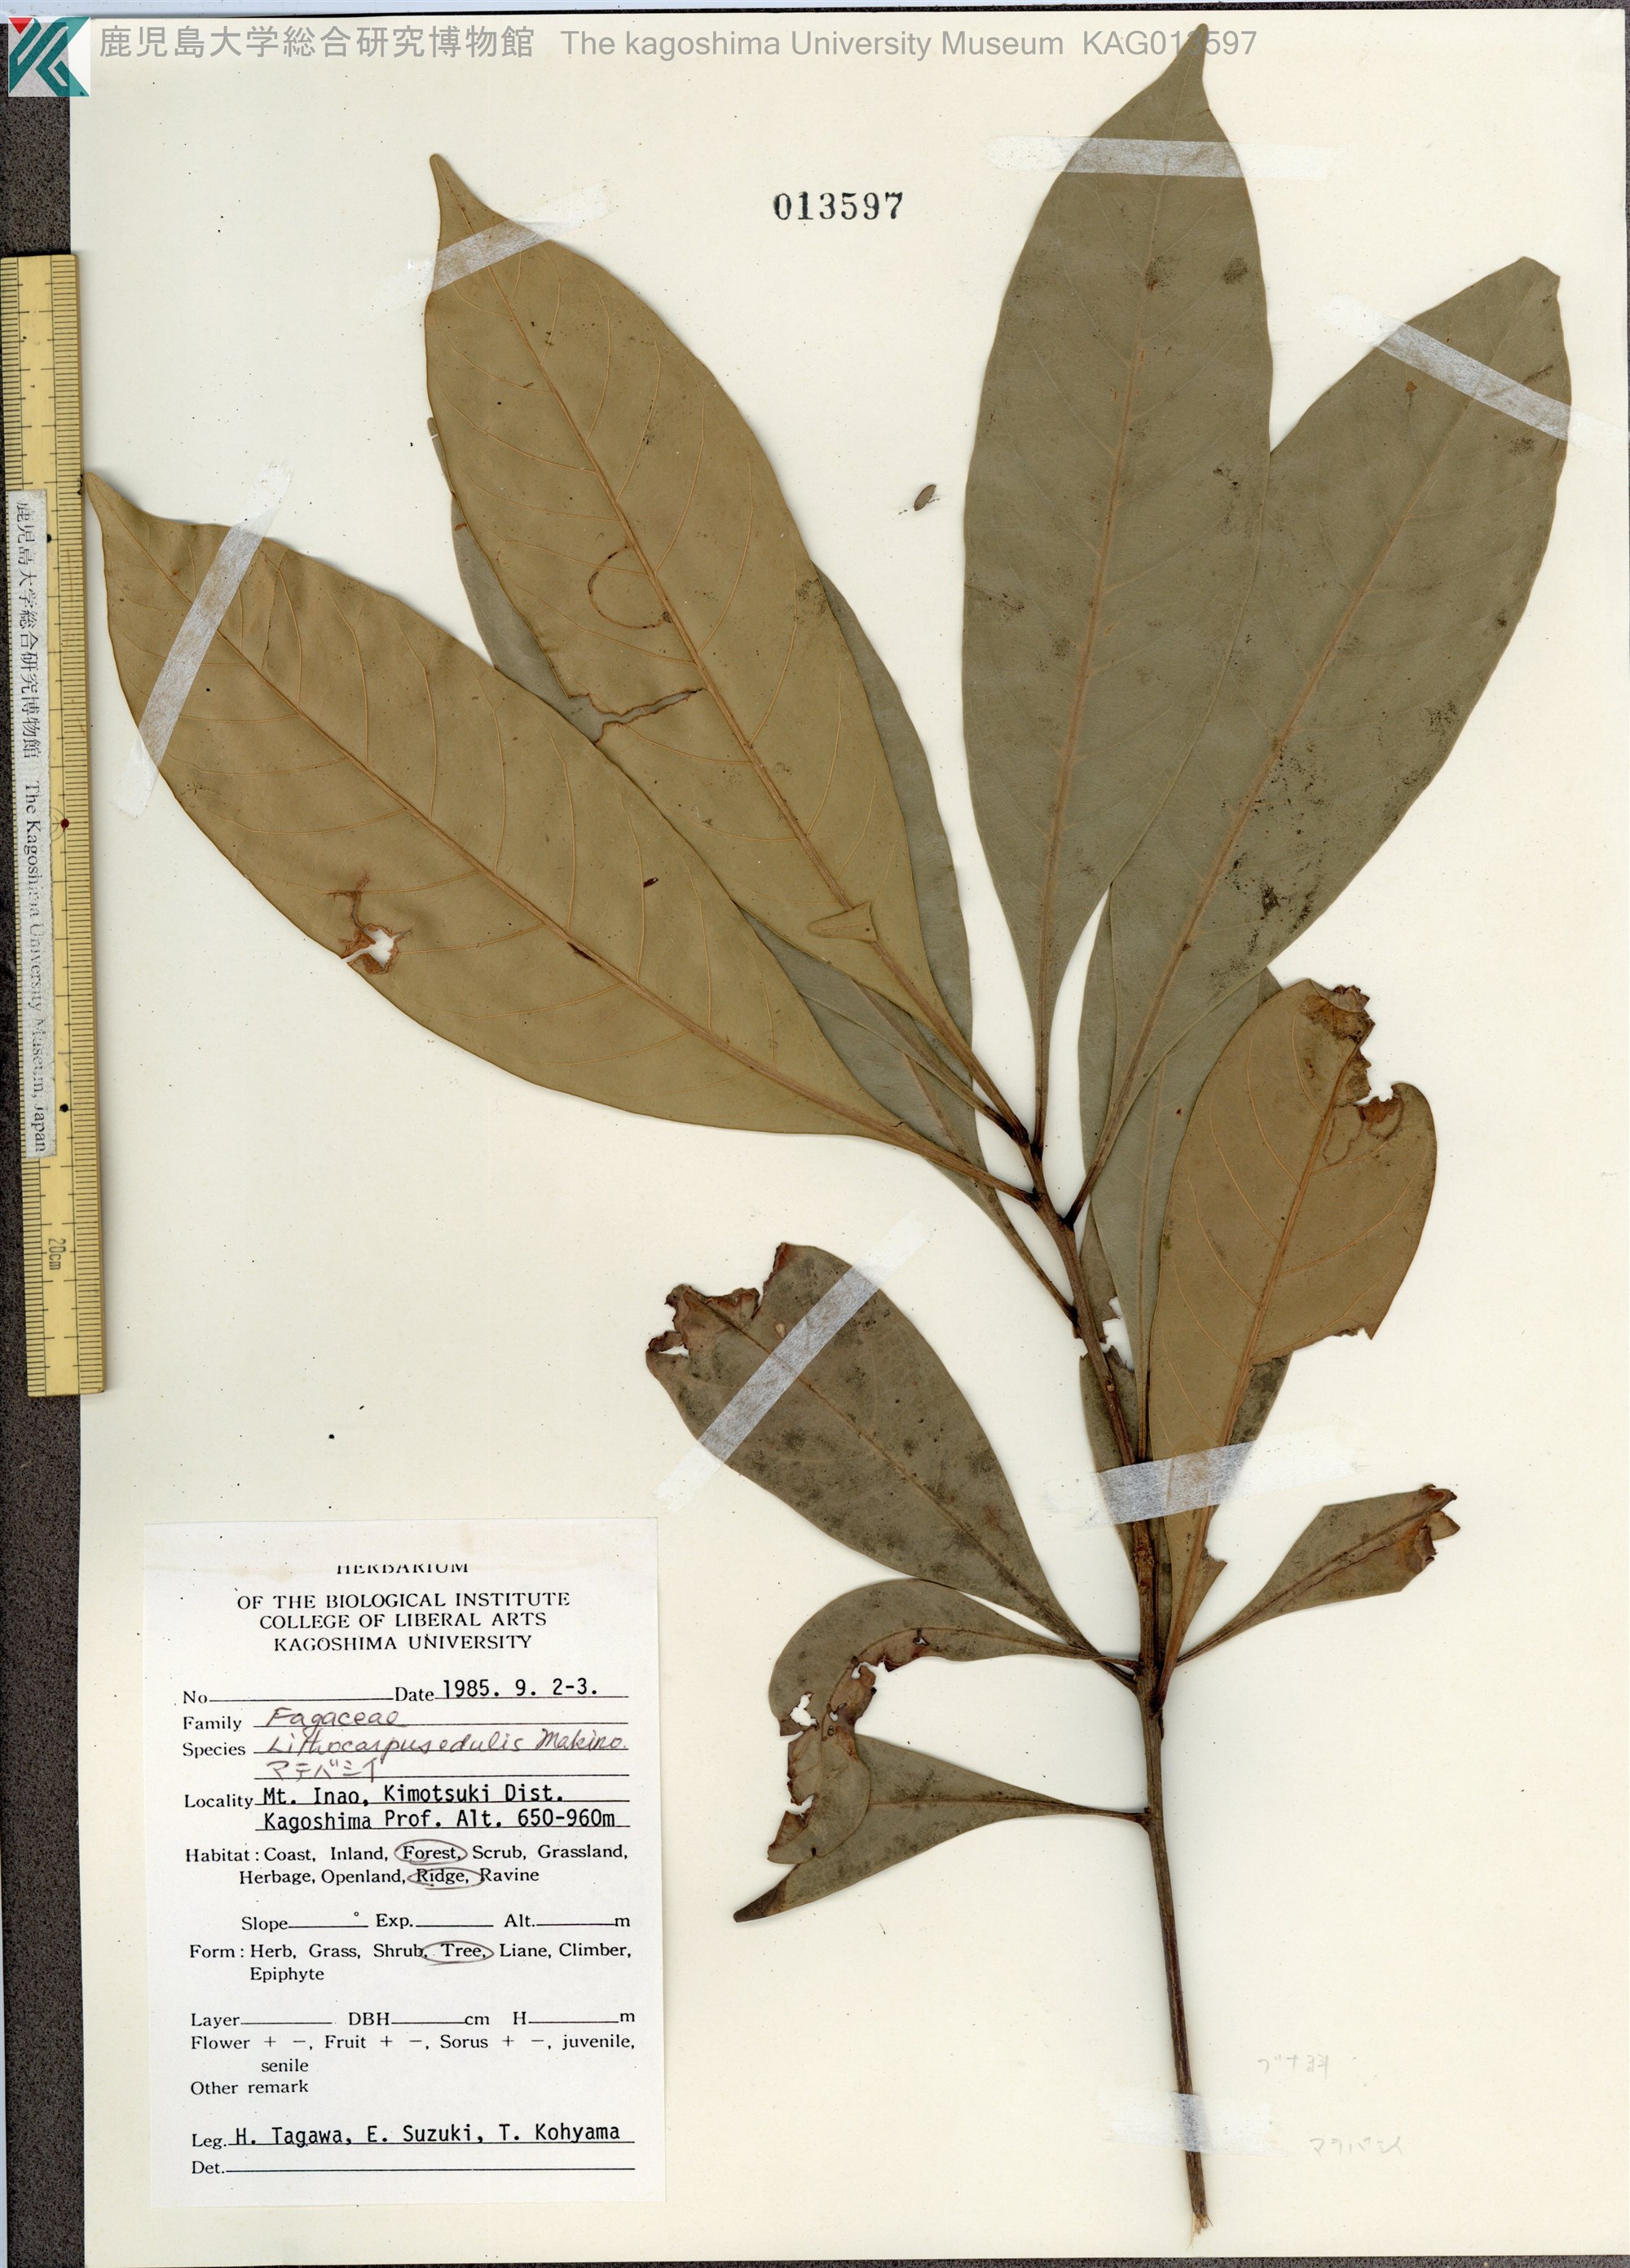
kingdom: Plantae
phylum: Tracheophyta
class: Magnoliopsida
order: Fagales
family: Fagaceae
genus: Lithocarpus
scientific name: Lithocarpus edulis
